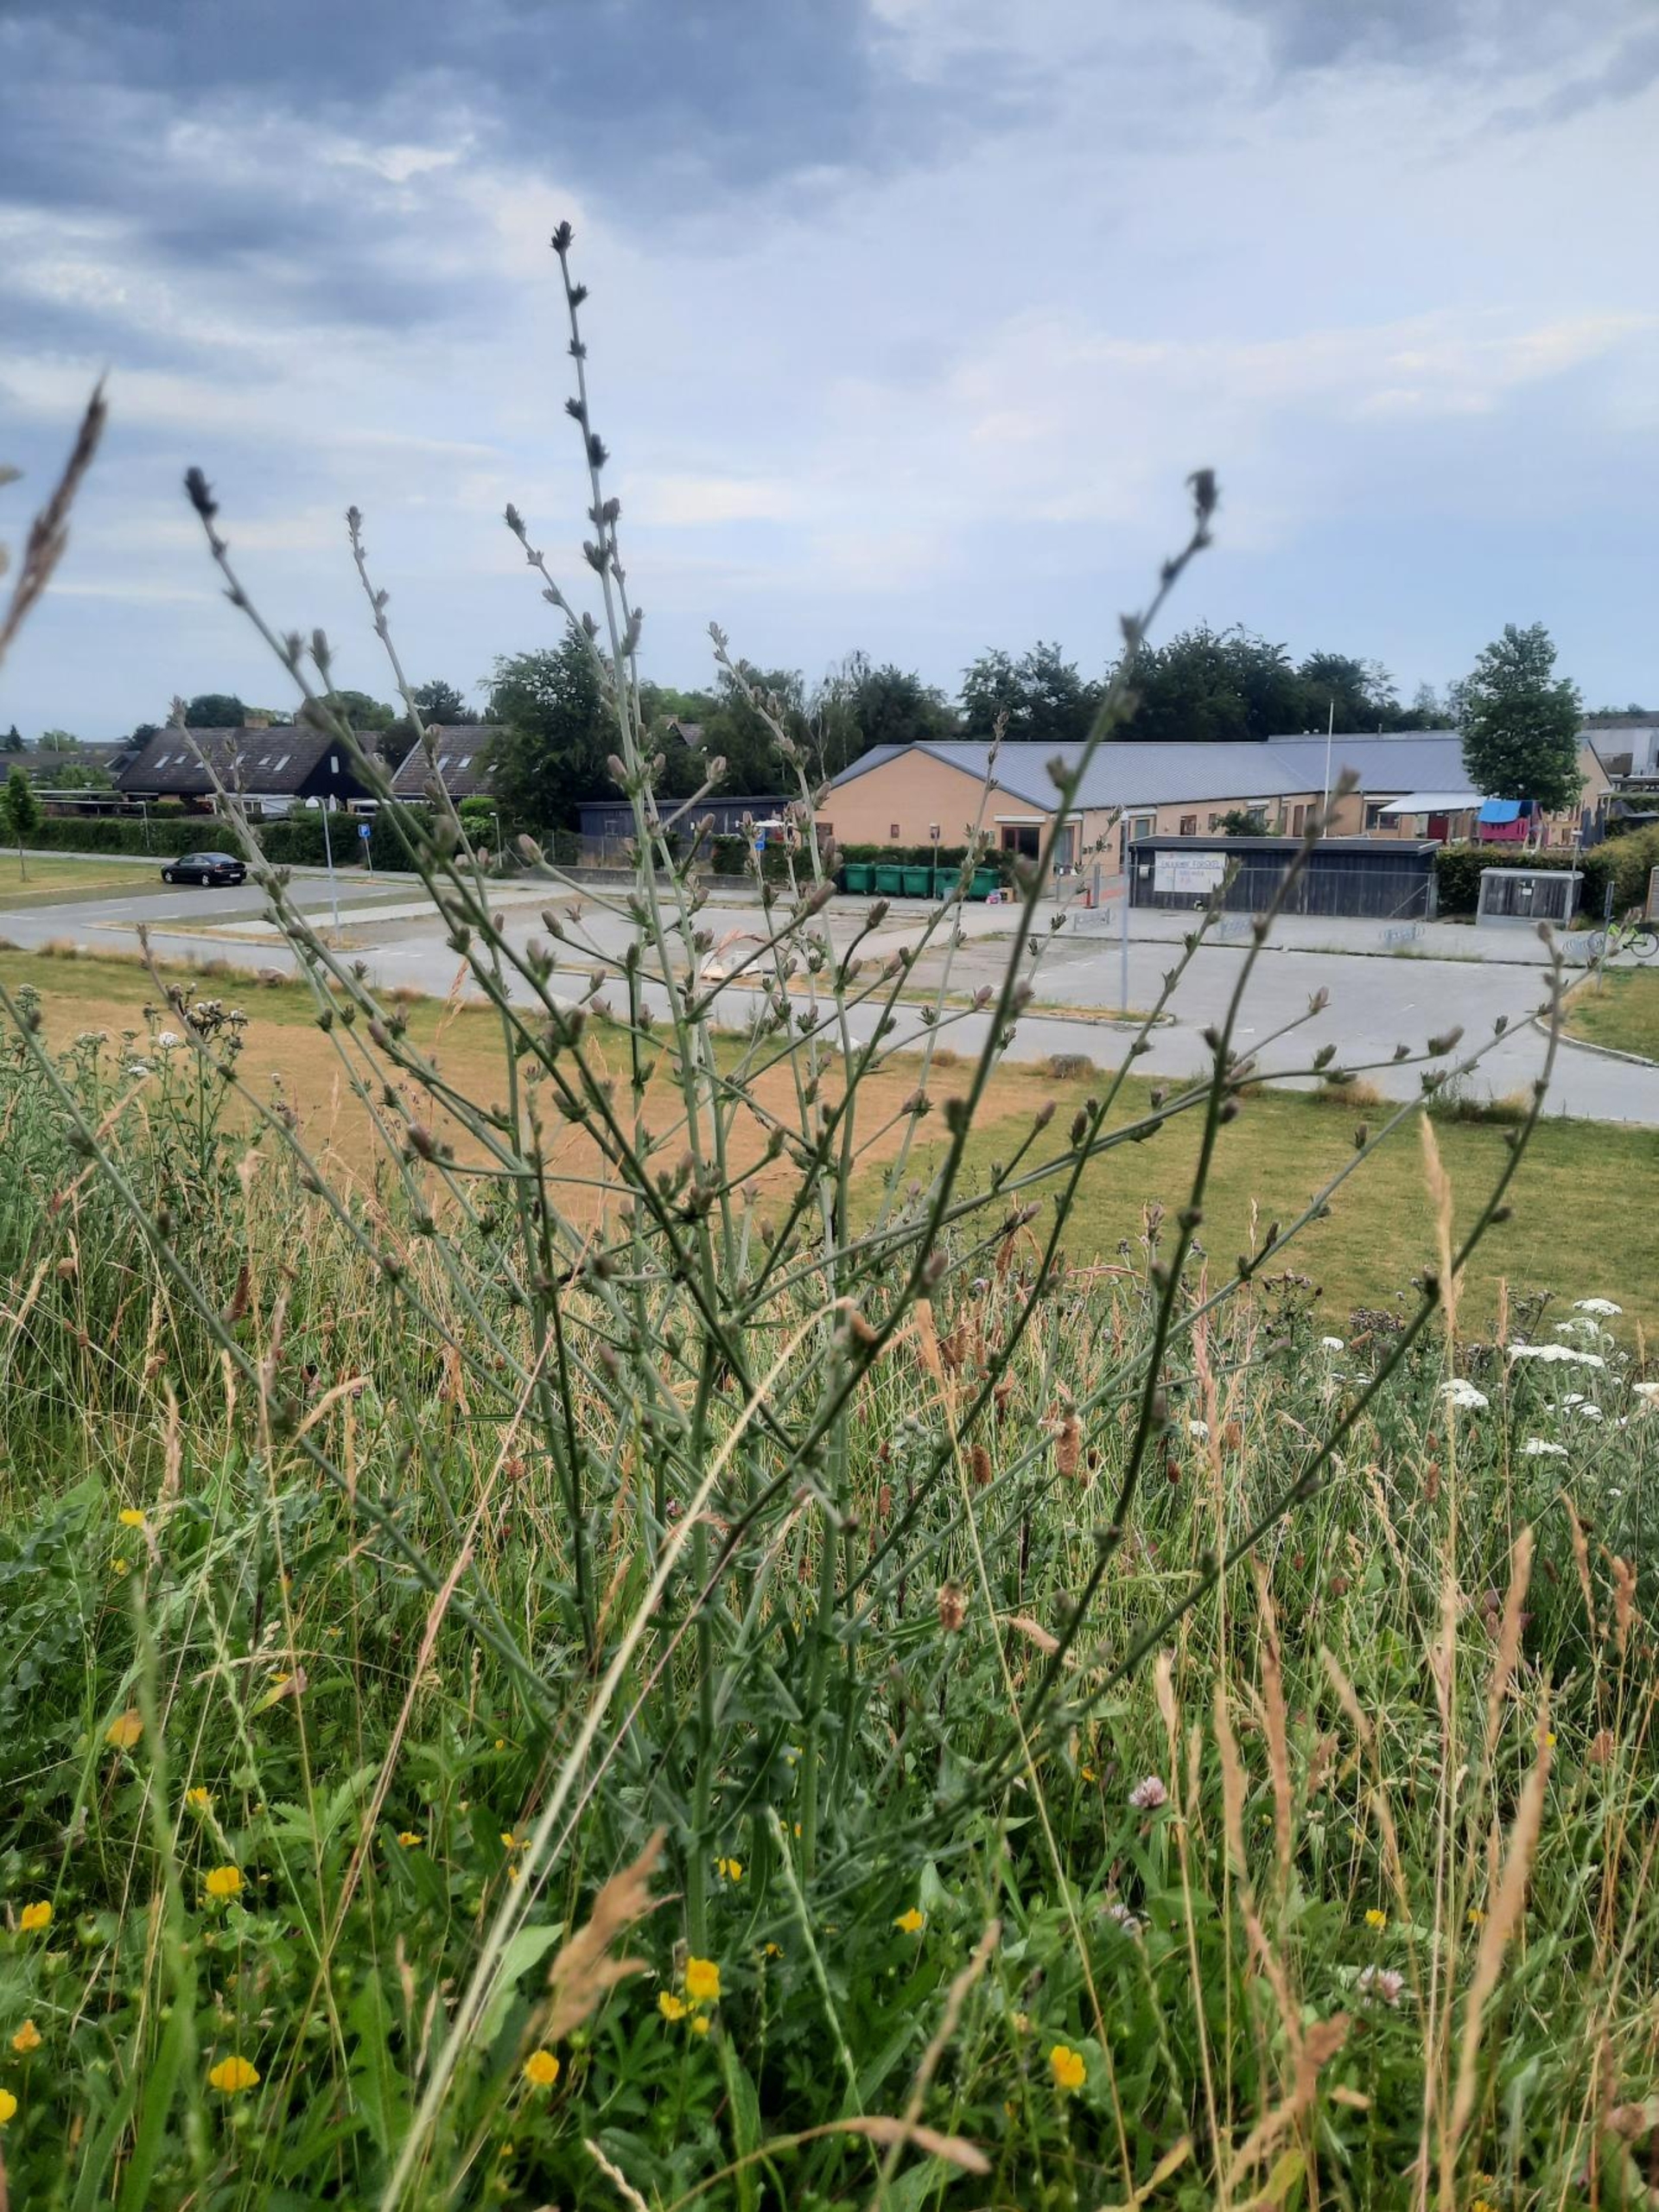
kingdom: Plantae
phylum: Tracheophyta
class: Magnoliopsida
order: Asterales
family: Asteraceae
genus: Cichorium
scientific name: Cichorium intybus
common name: Cikorie
